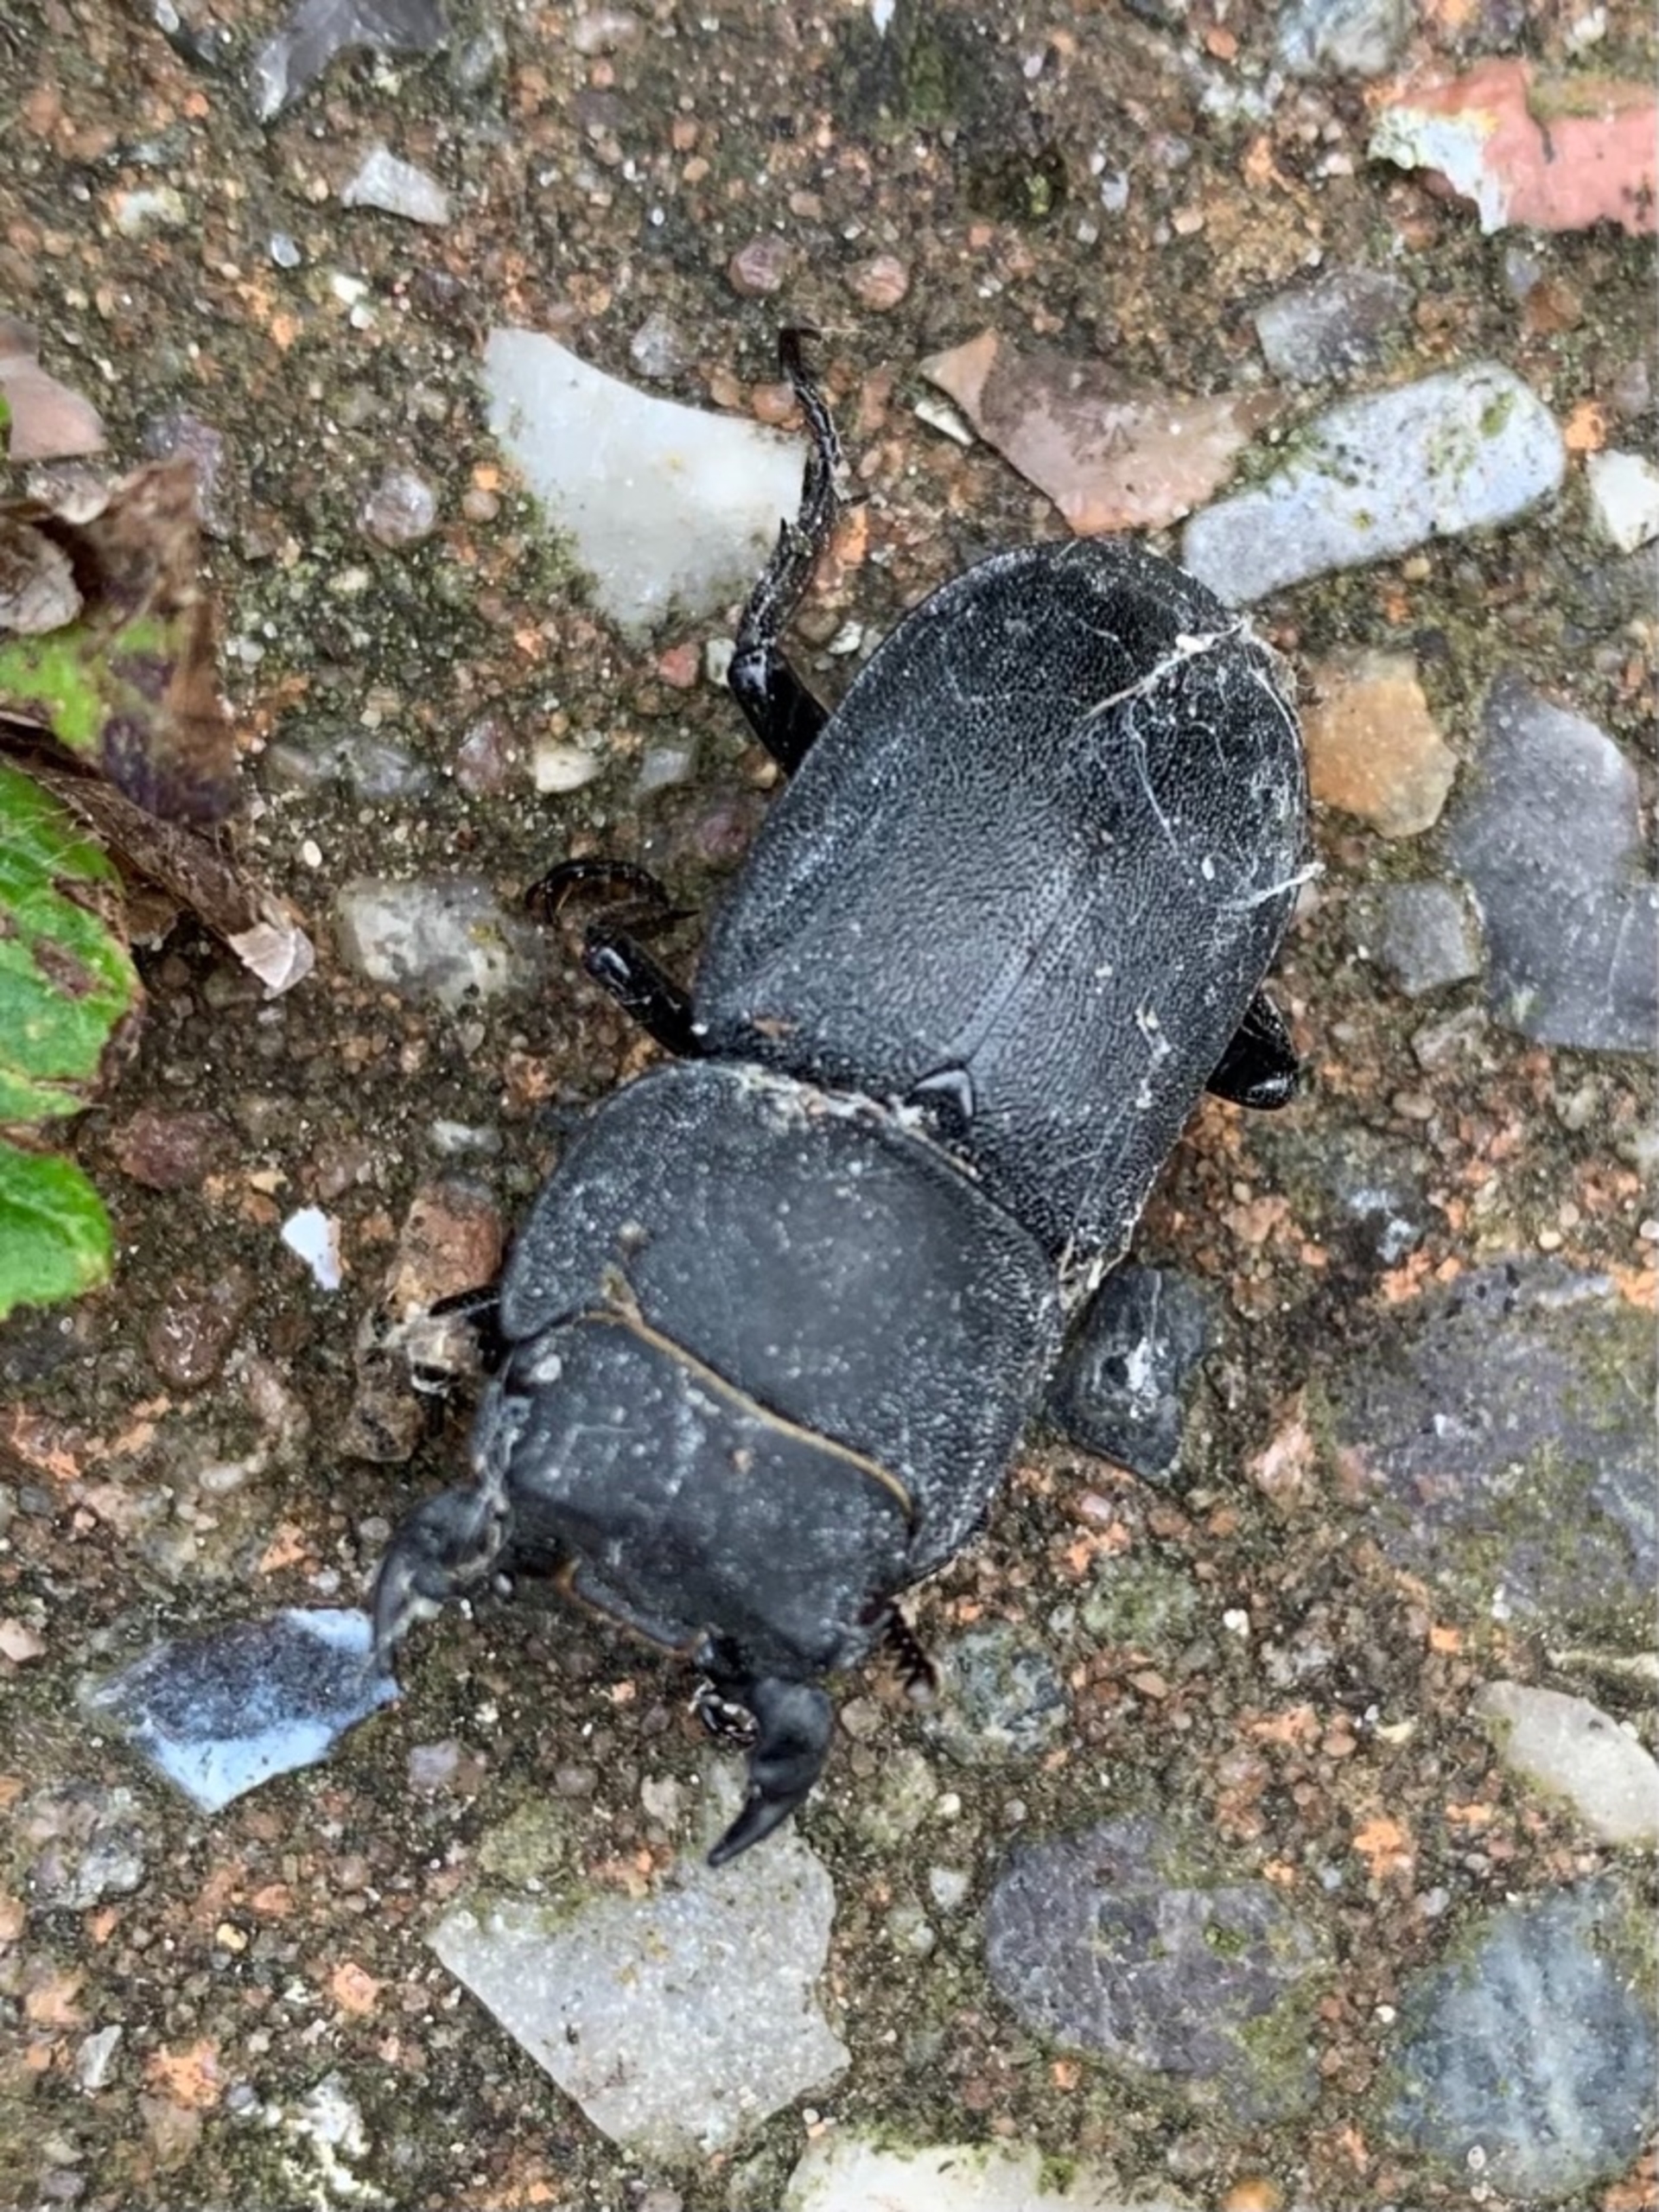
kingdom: Animalia
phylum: Arthropoda
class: Insecta
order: Coleoptera
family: Lucanidae
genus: Dorcus
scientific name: Dorcus parallelipipedus
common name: Bøghjort
